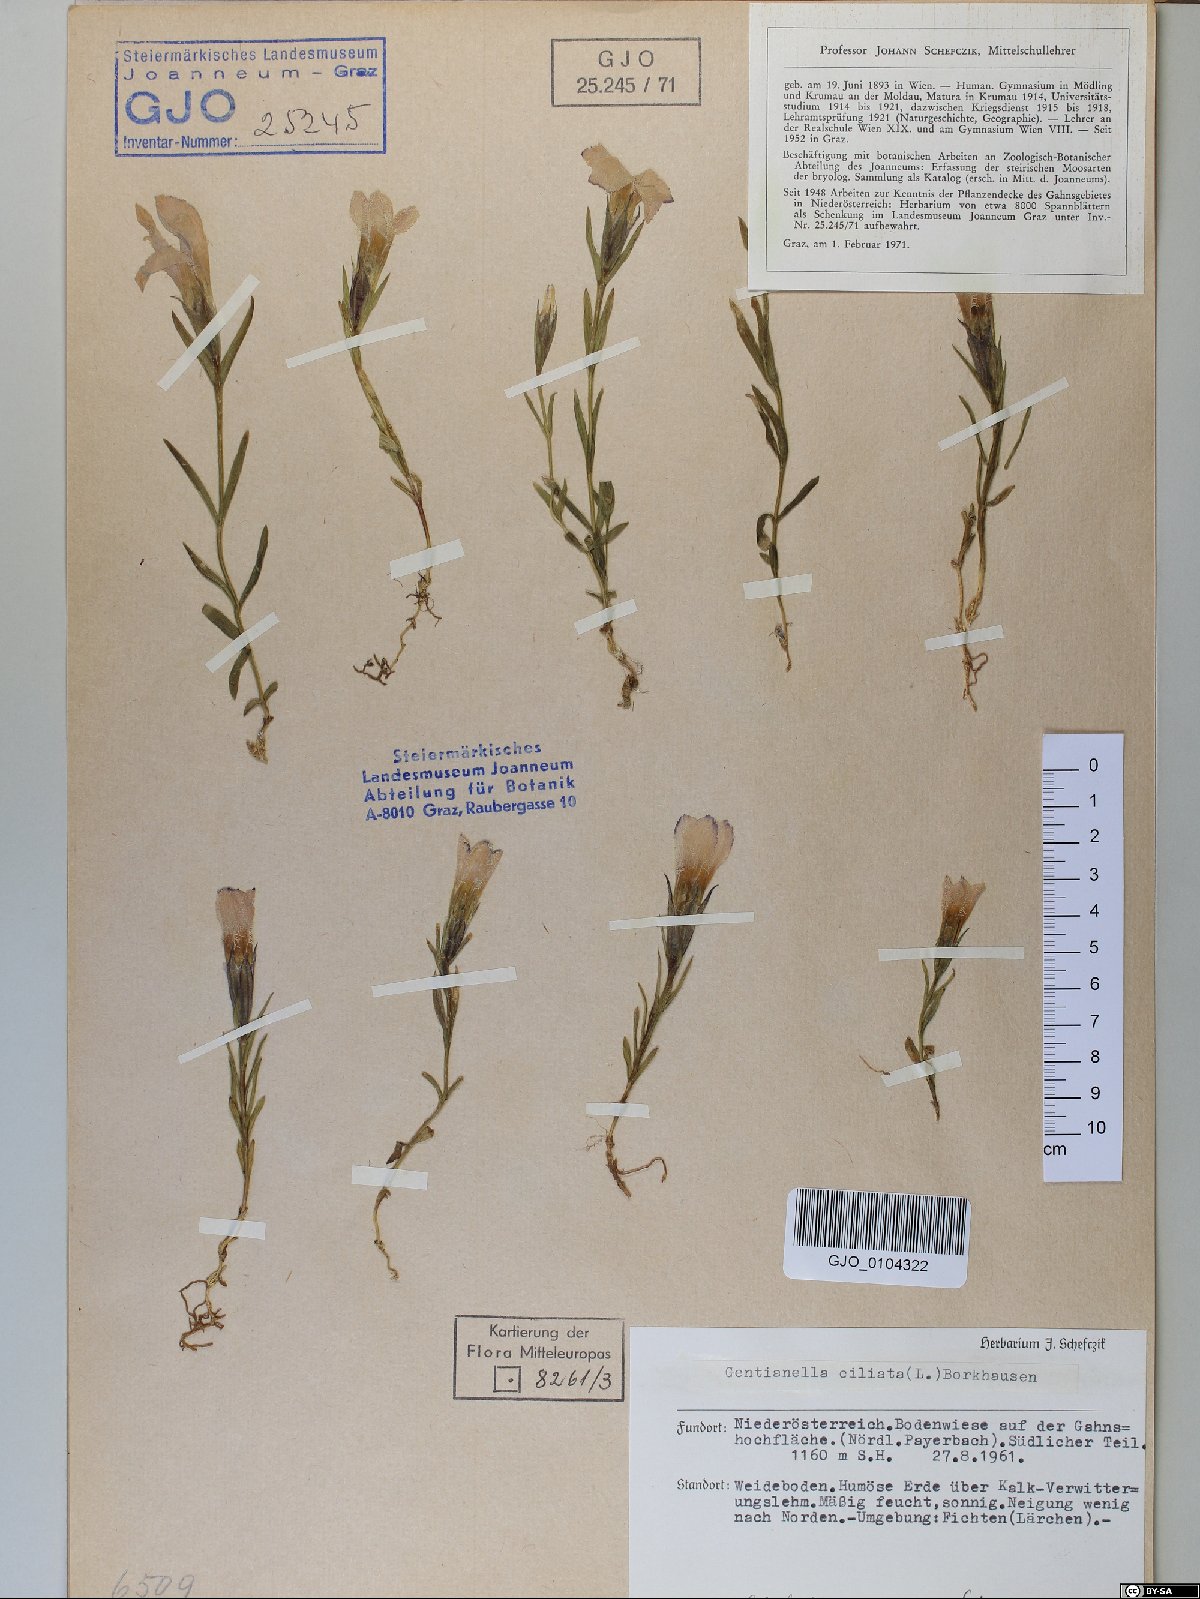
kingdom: Plantae
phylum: Tracheophyta
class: Magnoliopsida
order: Gentianales
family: Gentianaceae
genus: Gentianopsis
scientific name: Gentianopsis ciliata
